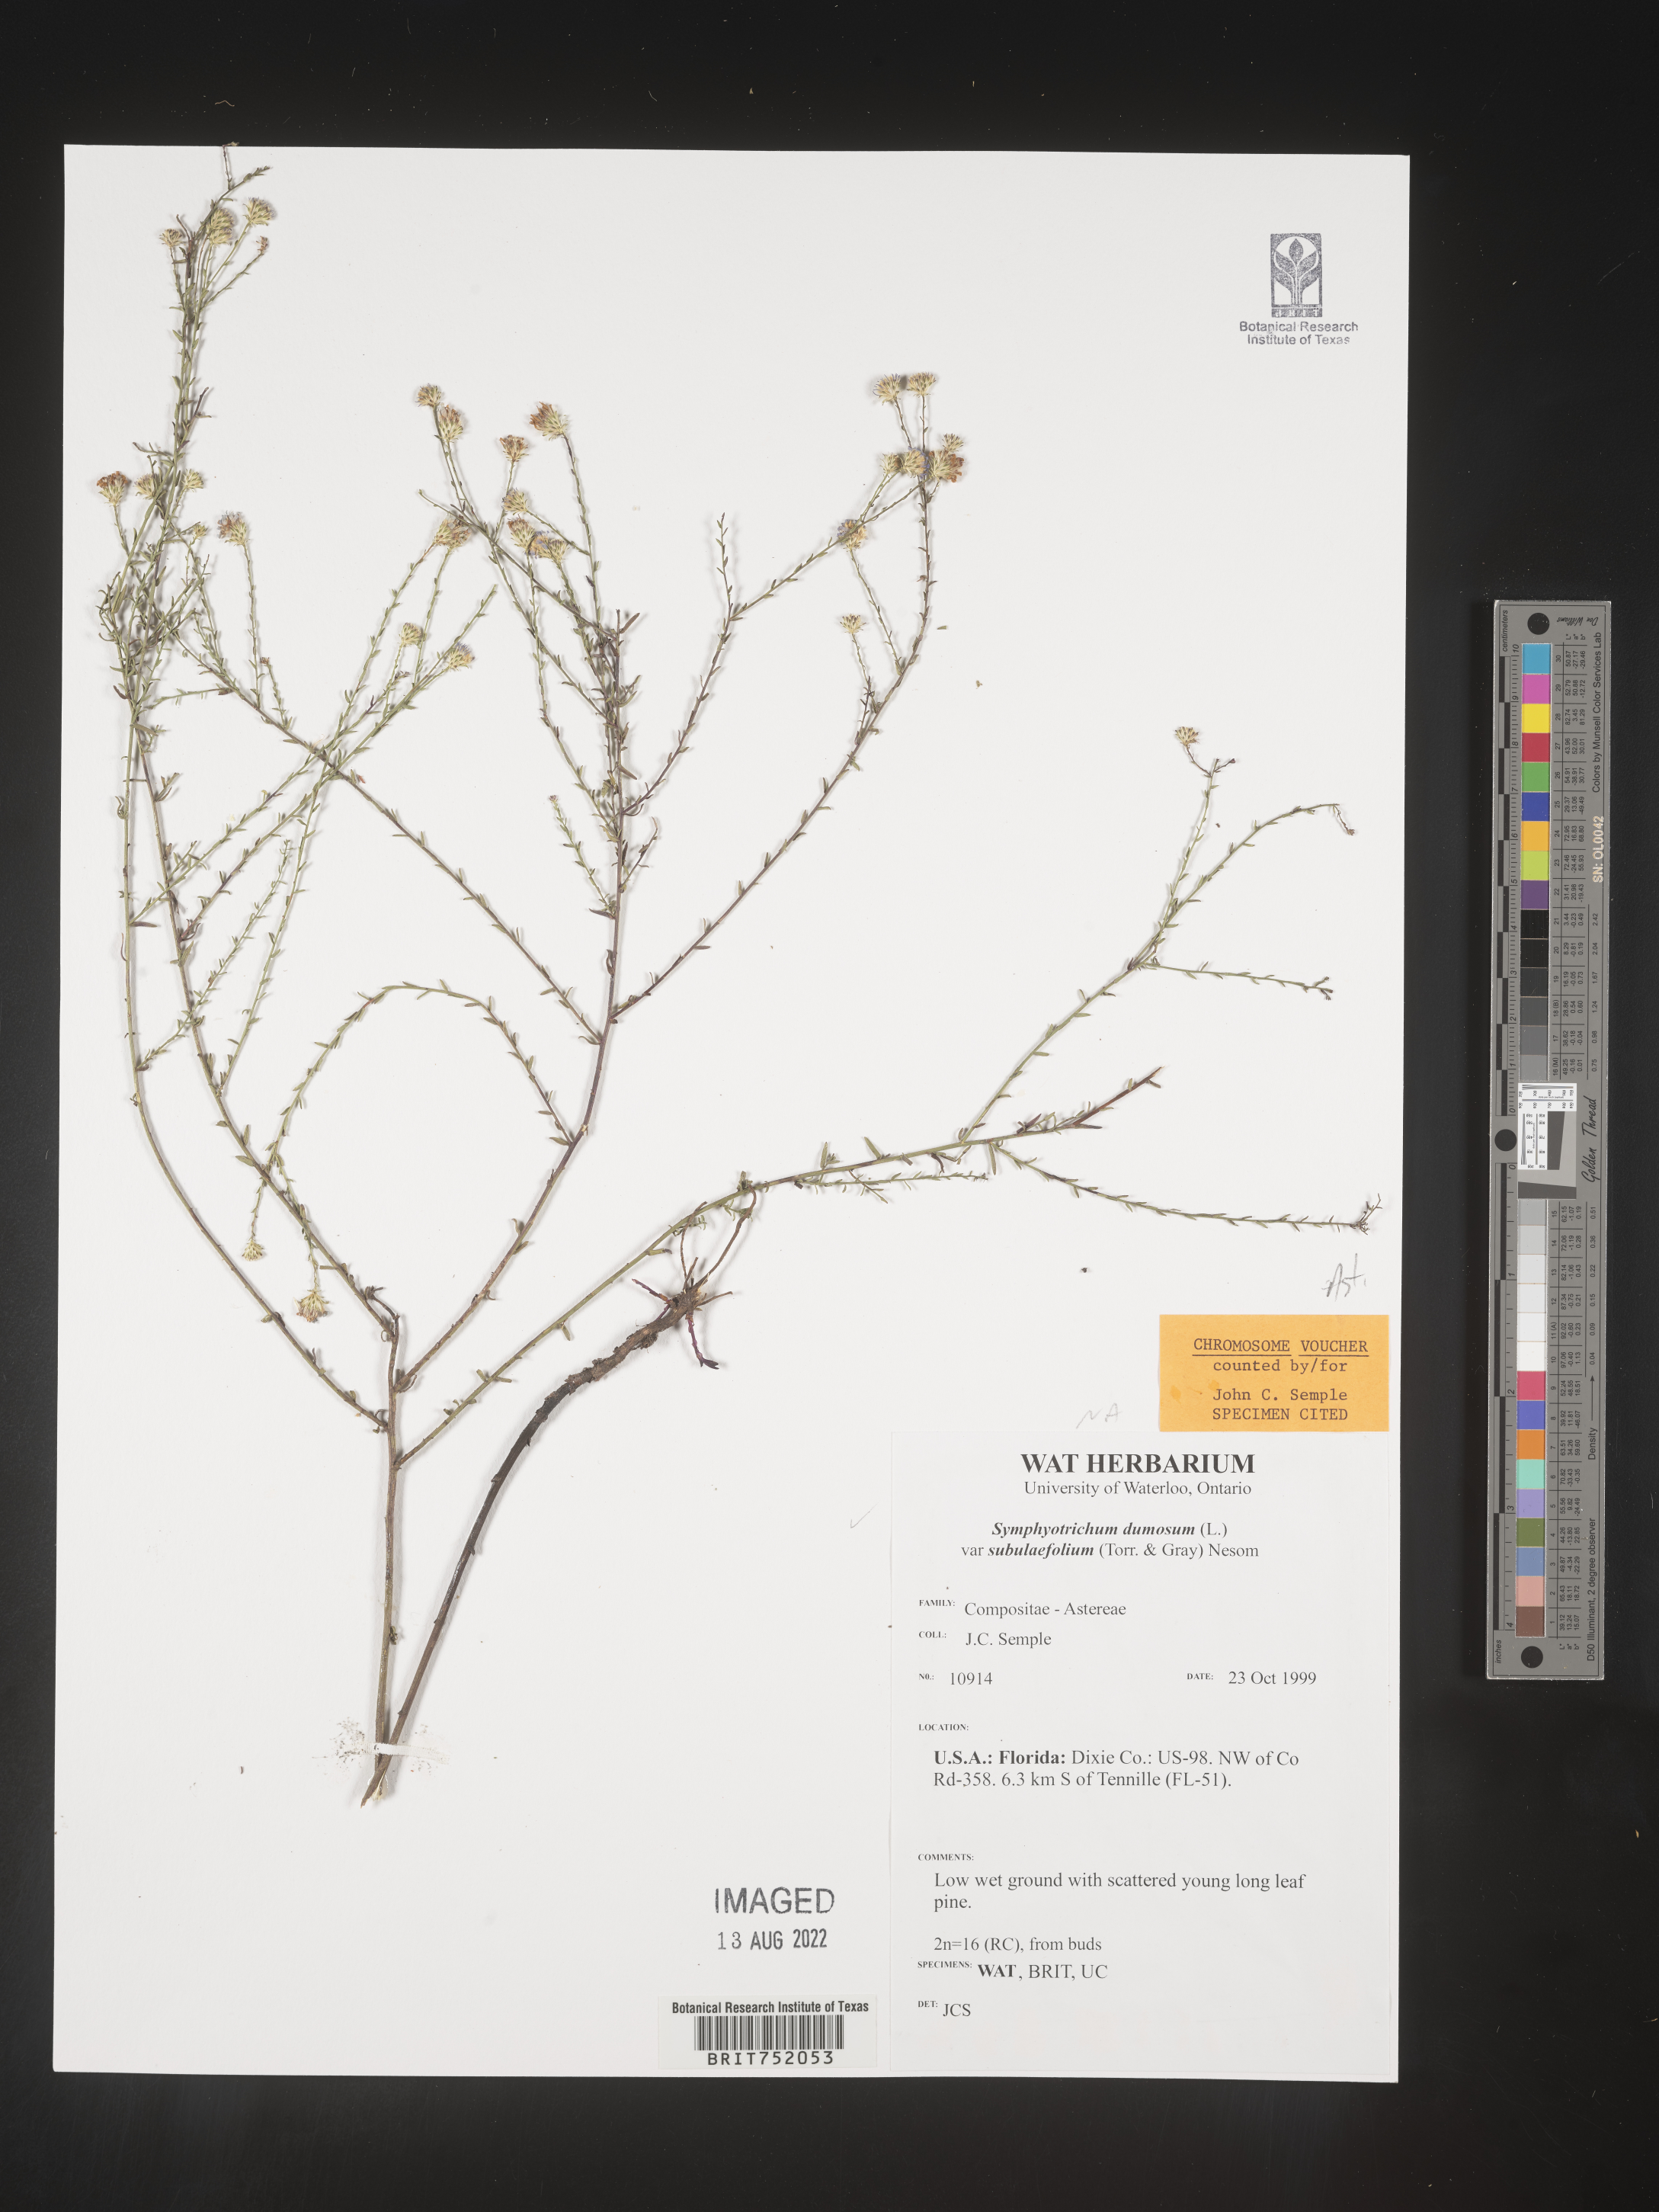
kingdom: Plantae
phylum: Tracheophyta
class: Magnoliopsida
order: Asterales
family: Asteraceae
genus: Symphyotrichum
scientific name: Symphyotrichum dumosum
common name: Bushy aster
